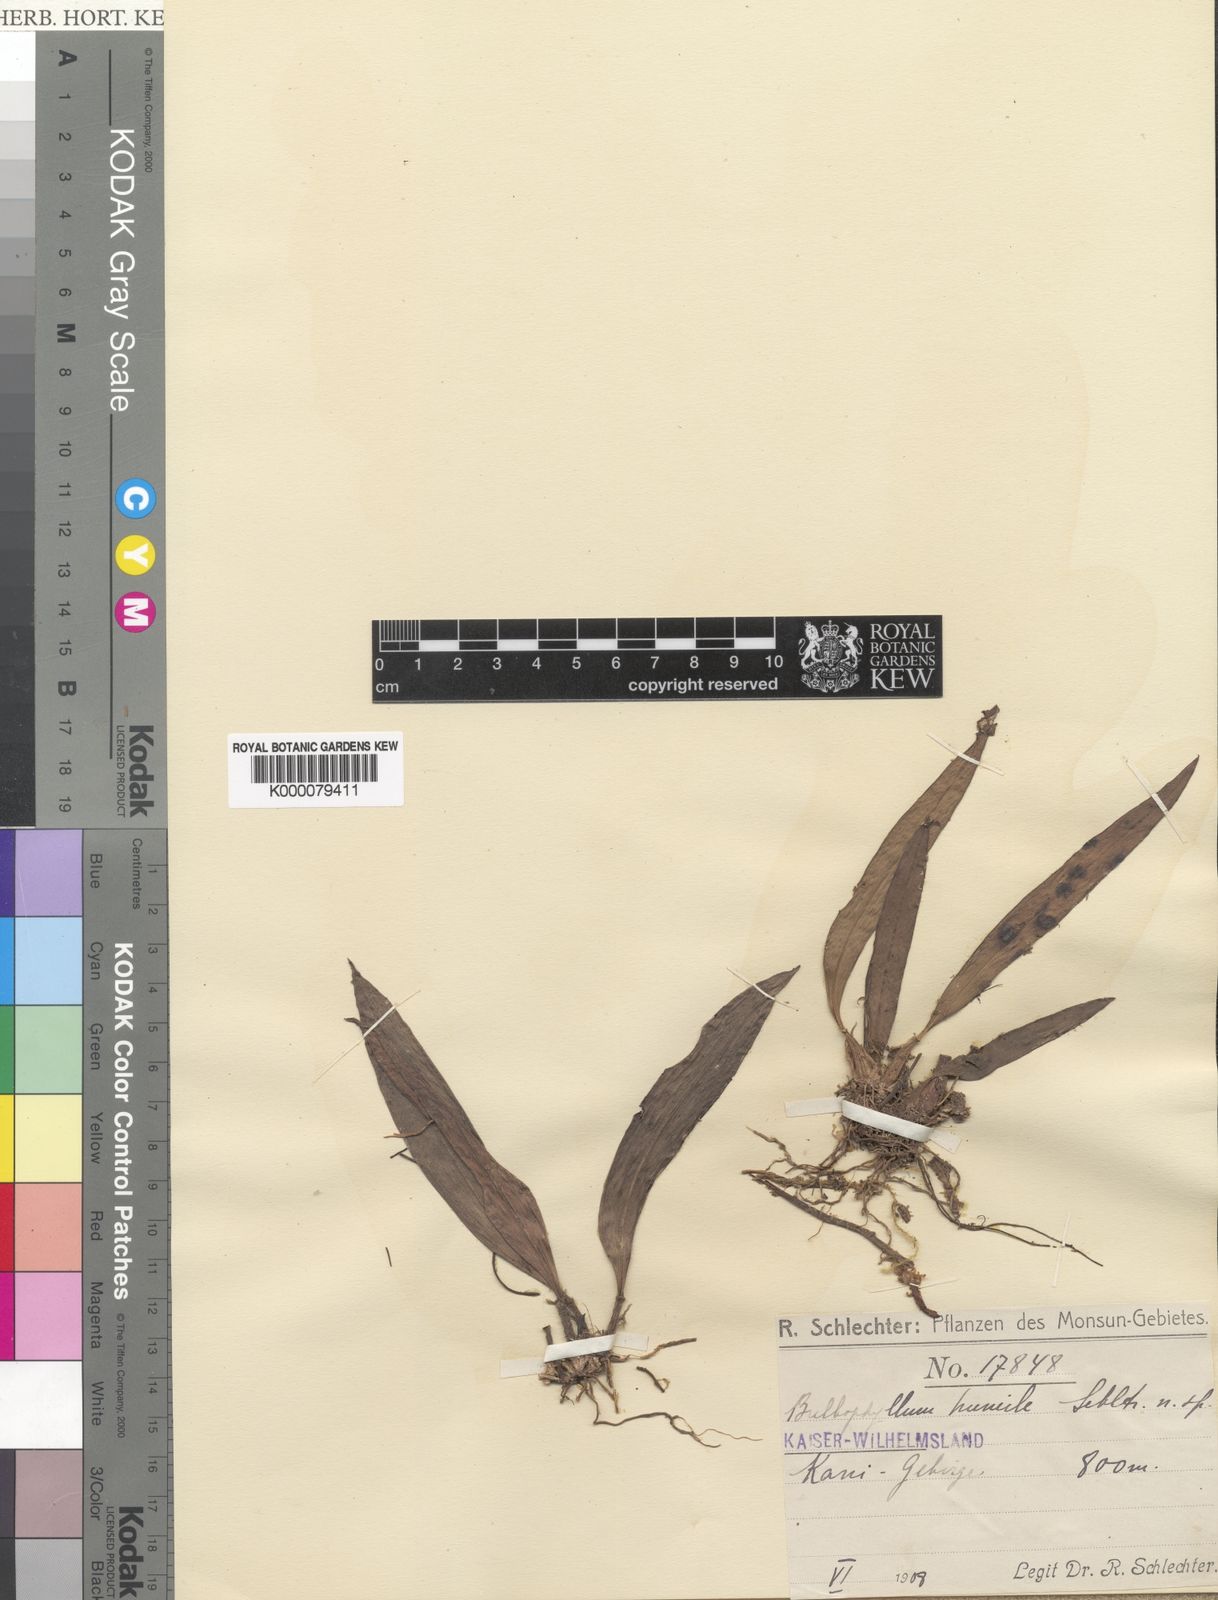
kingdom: Plantae
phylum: Tracheophyta
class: Liliopsida
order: Asparagales
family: Orchidaceae
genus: Bulbophyllum
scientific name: Bulbophyllum humile
